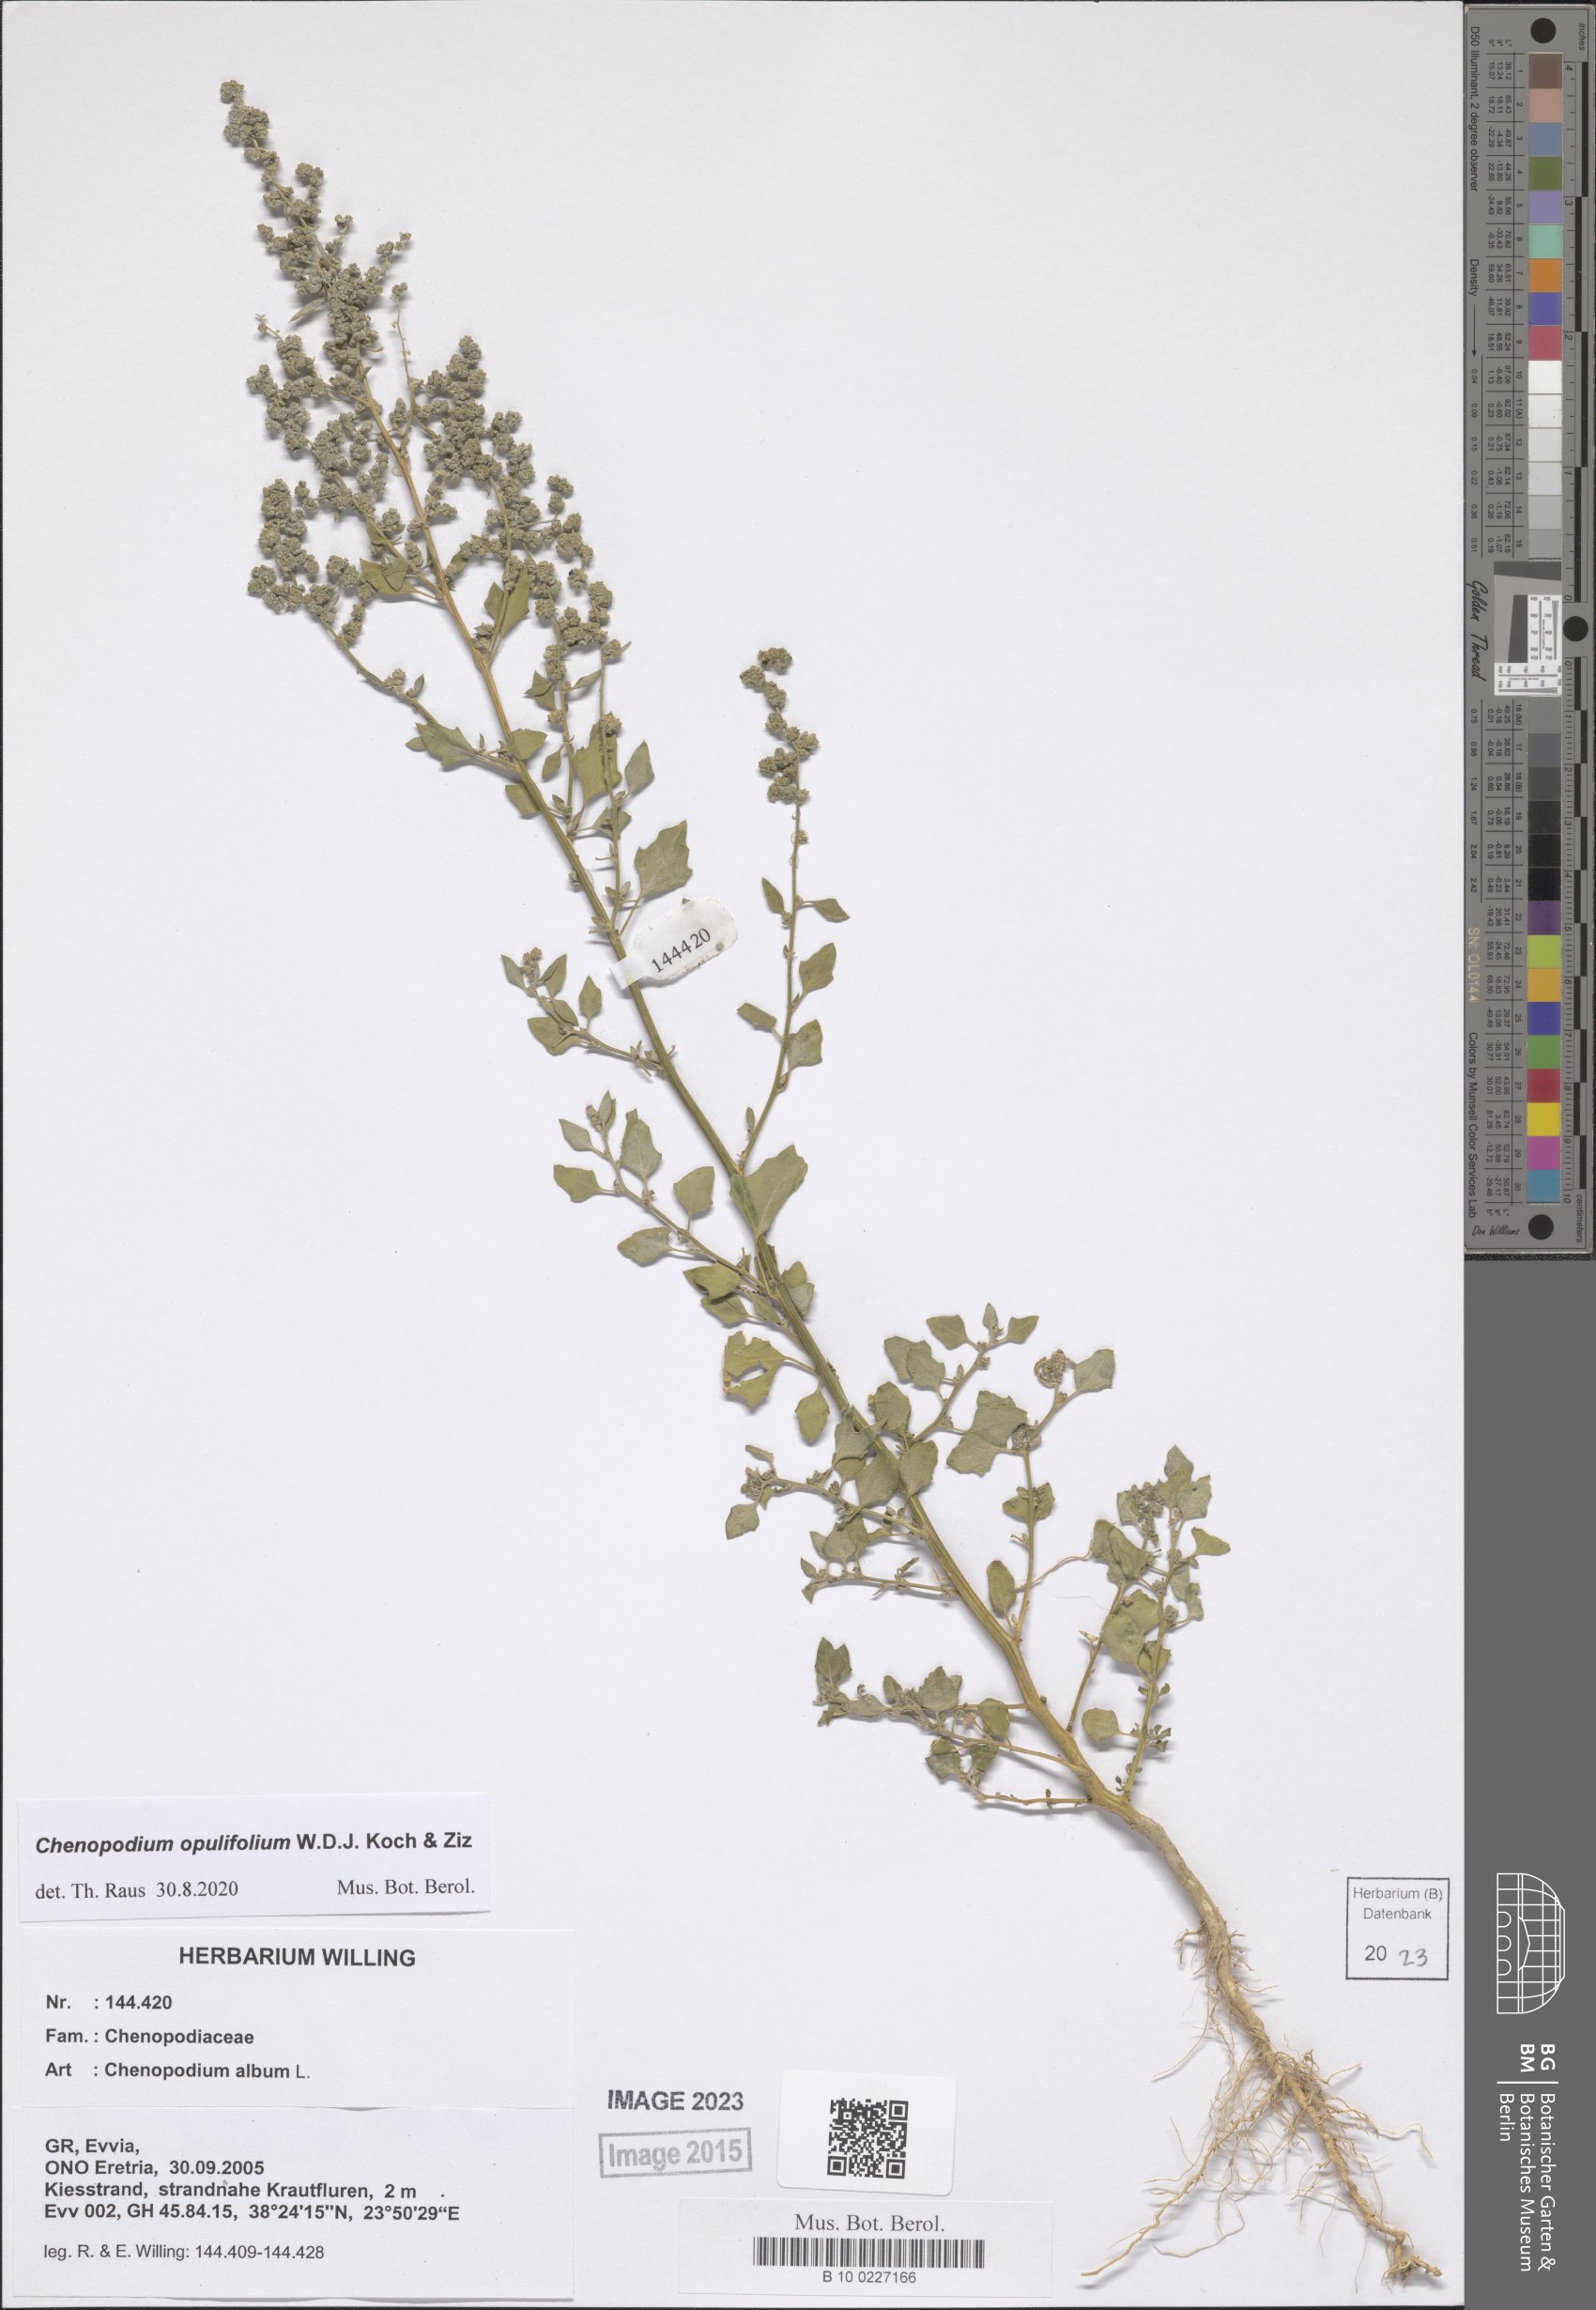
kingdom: Plantae
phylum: Tracheophyta
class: Magnoliopsida
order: Caryophyllales
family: Amaranthaceae
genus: Chenopodium
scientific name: Chenopodium opulifolium
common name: Grey goosefoot
